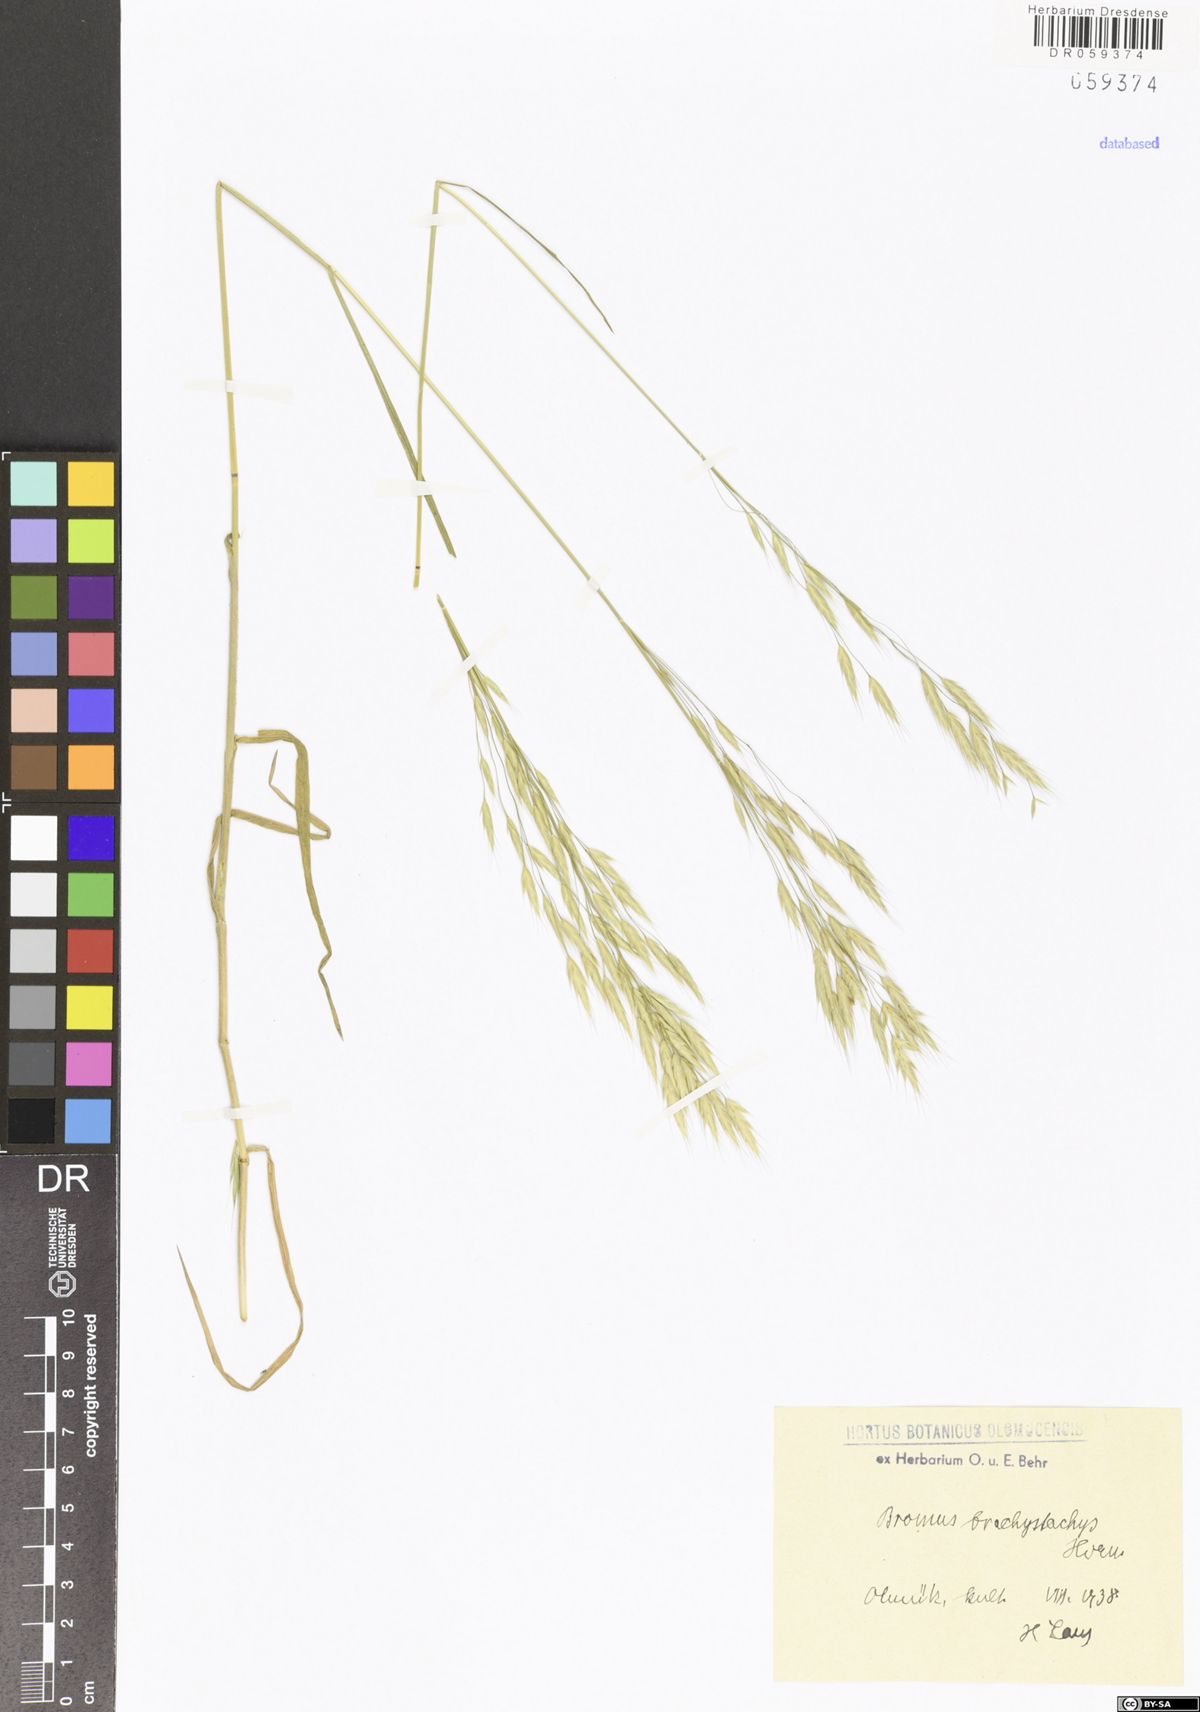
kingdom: Plantae
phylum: Tracheophyta
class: Liliopsida
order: Poales
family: Poaceae
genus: Bromus
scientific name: Bromus brachystachys
